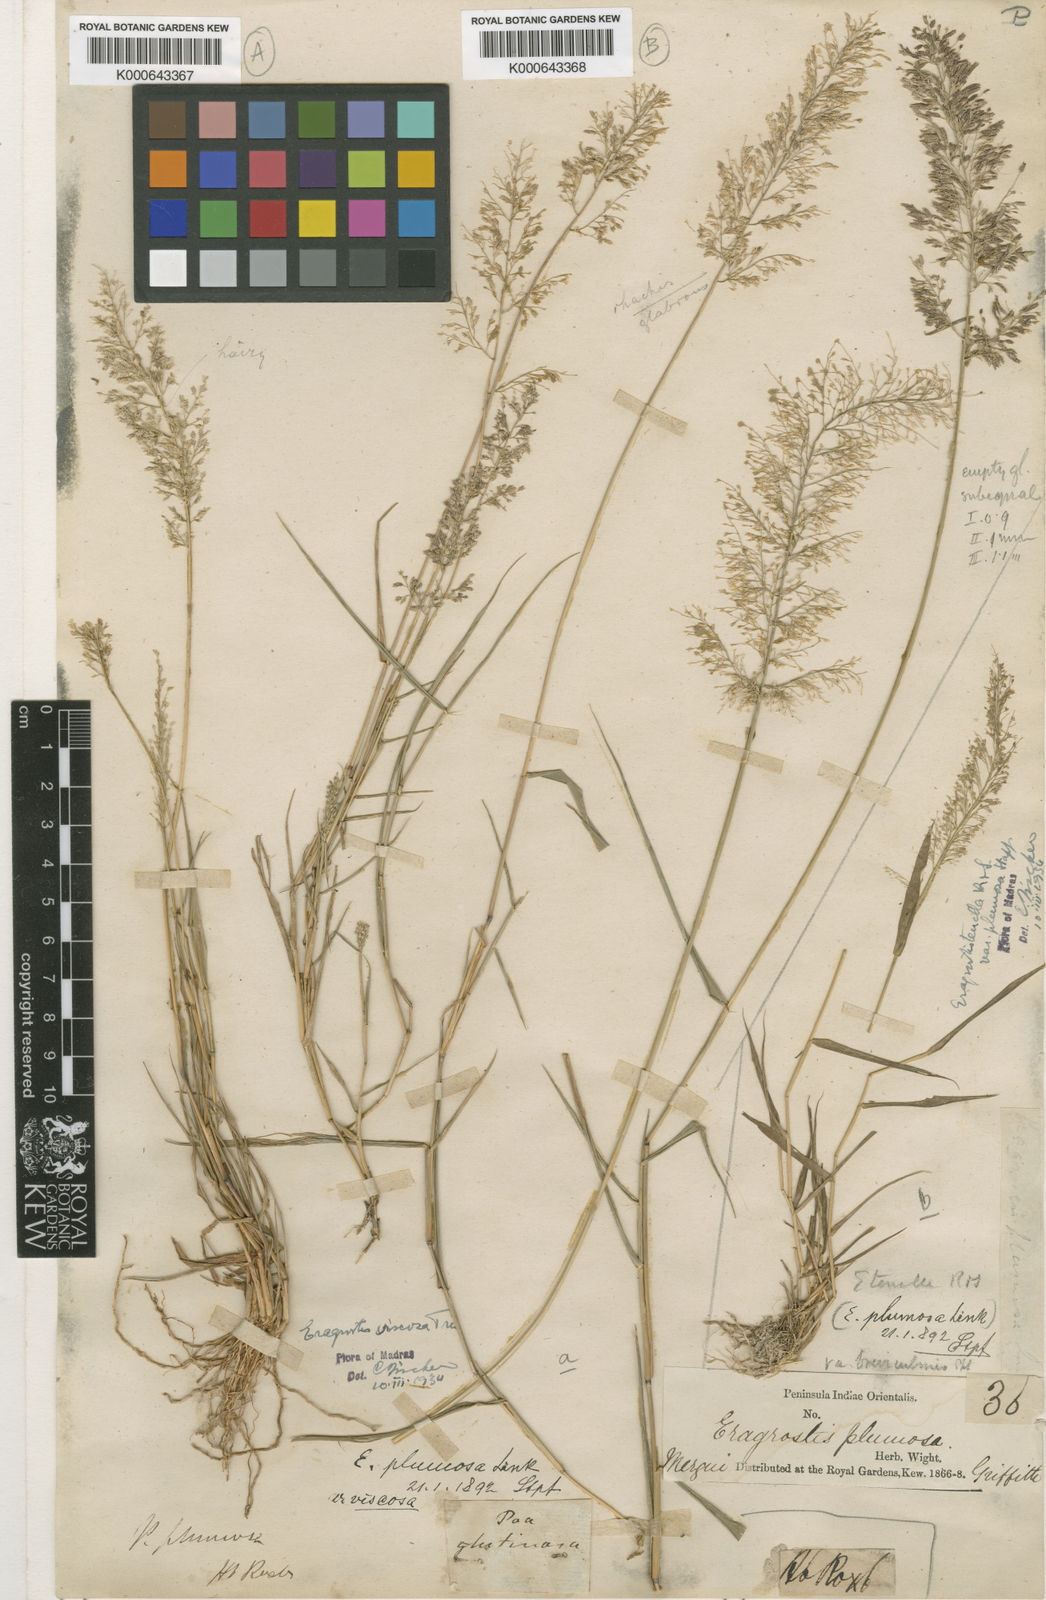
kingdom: Plantae
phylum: Tracheophyta
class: Liliopsida
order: Poales
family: Poaceae
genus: Eragrostis
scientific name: Eragrostis viscosa
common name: Sticky love grass
